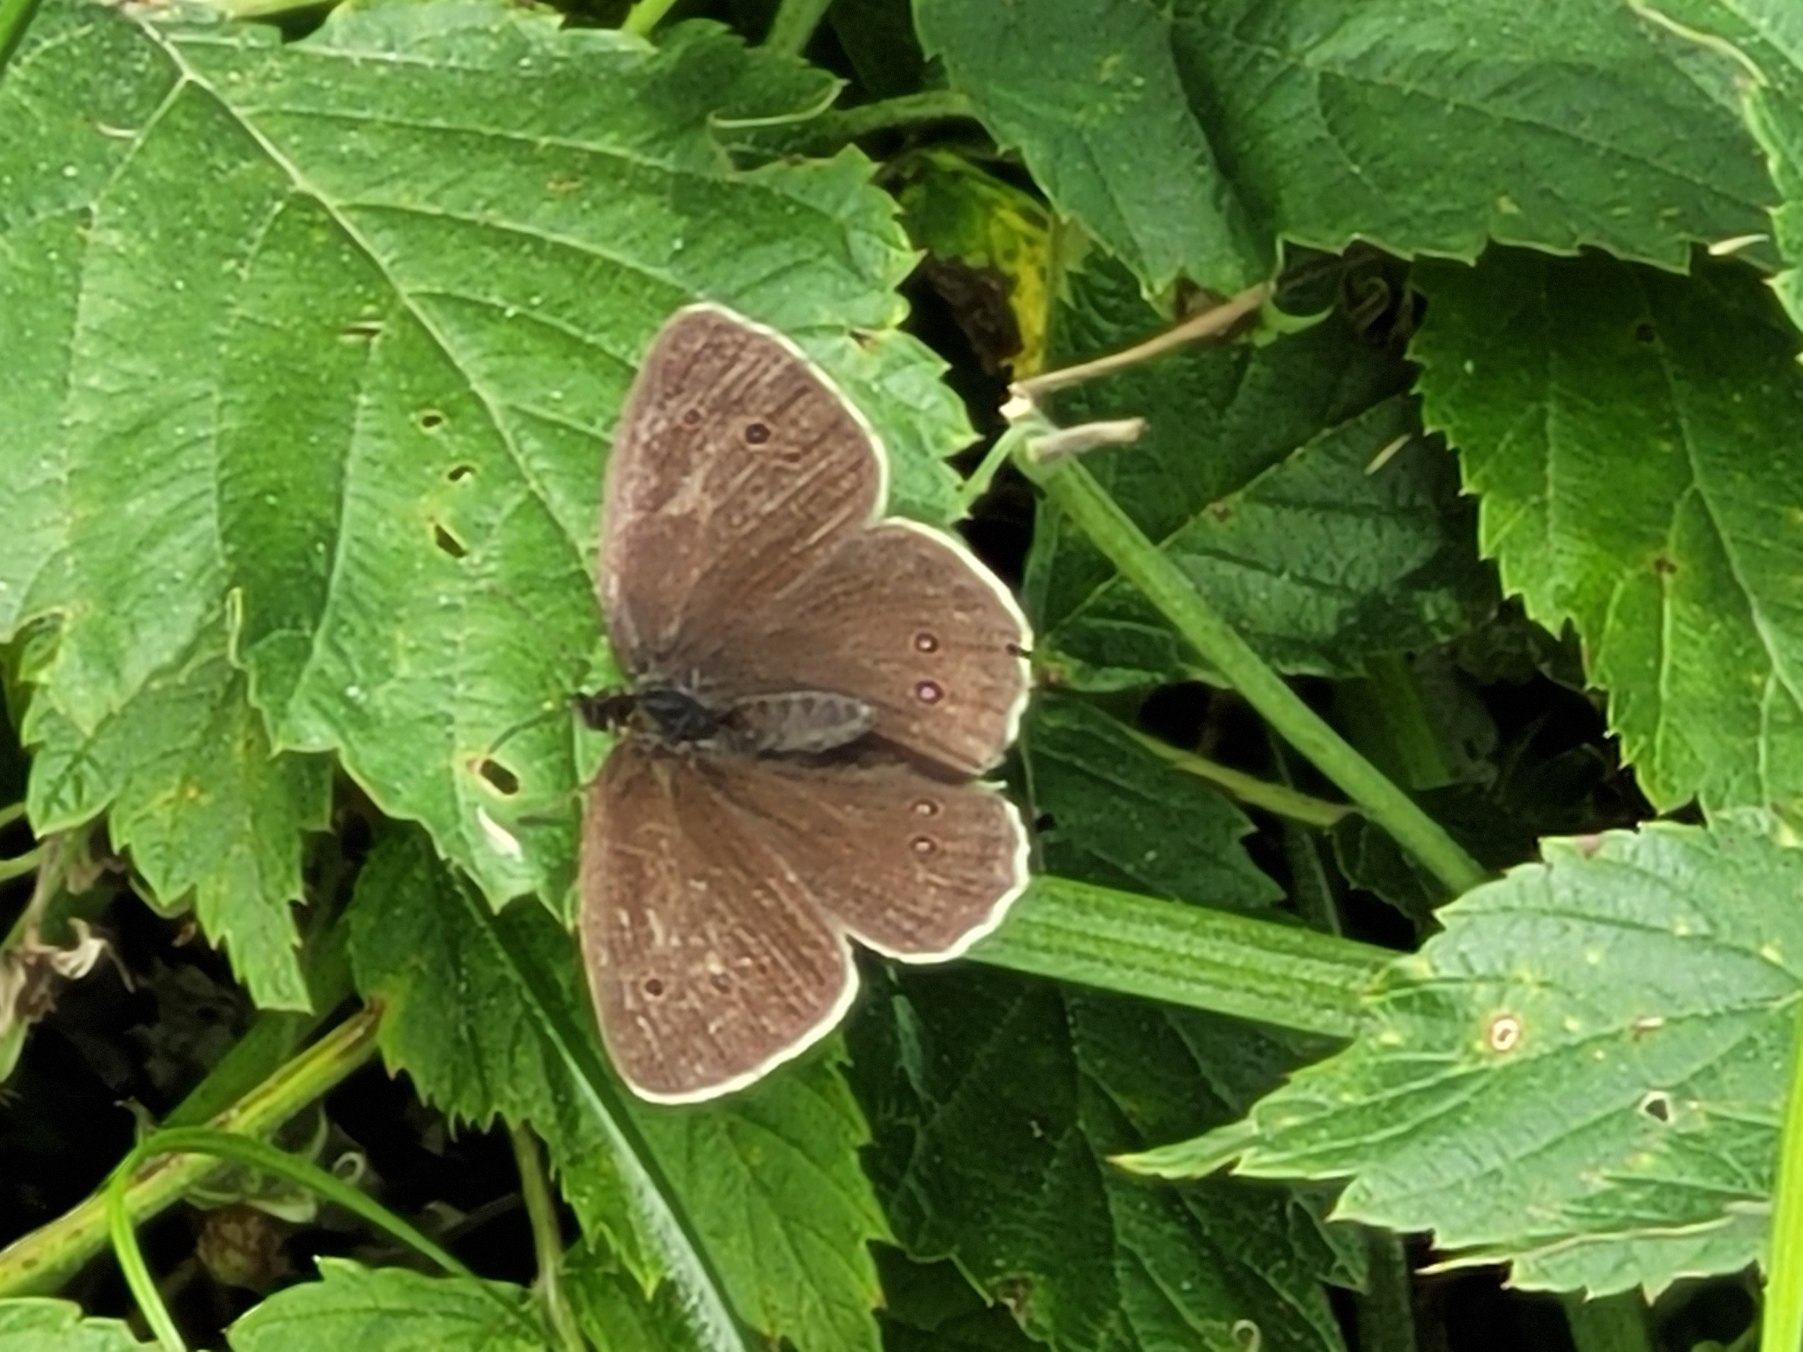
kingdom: Animalia
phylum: Arthropoda
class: Insecta
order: Lepidoptera
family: Nymphalidae
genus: Aphantopus
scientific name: Aphantopus hyperantus
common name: Engrandøje
